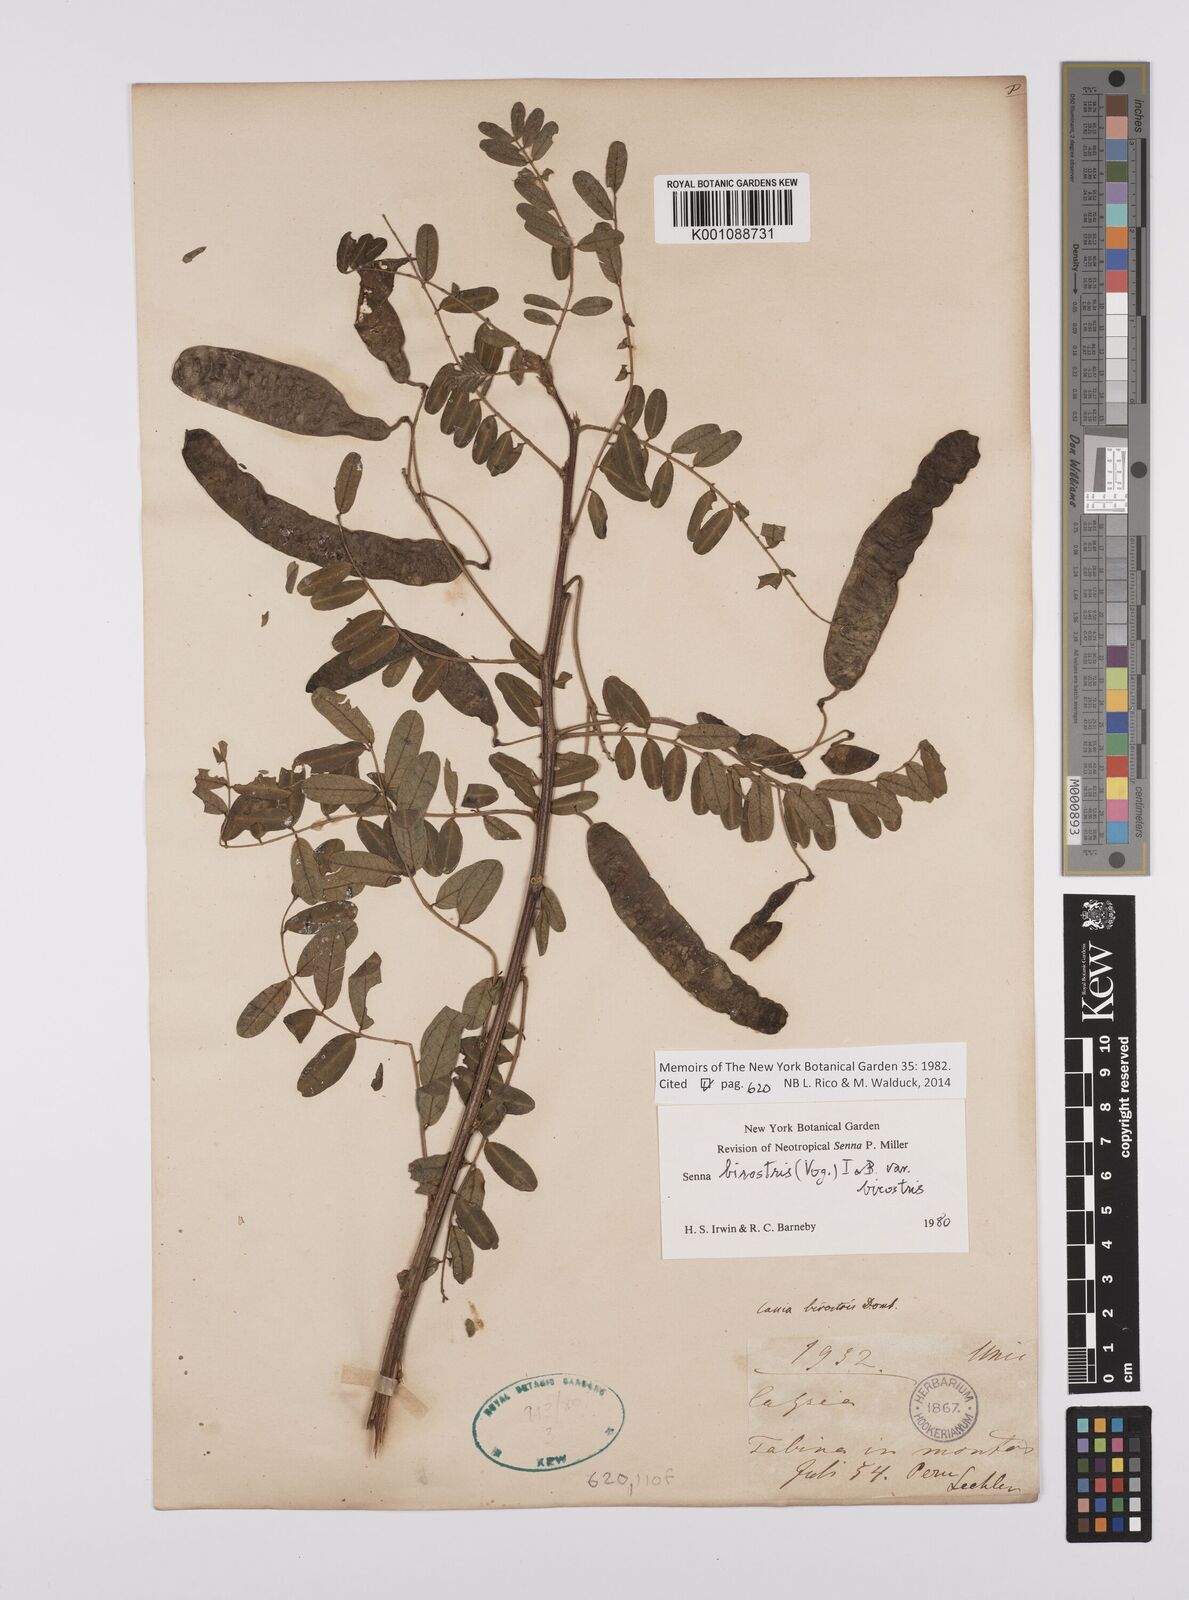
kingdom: Plantae
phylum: Tracheophyta
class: Magnoliopsida
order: Fabales
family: Fabaceae
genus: Senna
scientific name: Senna birostris
